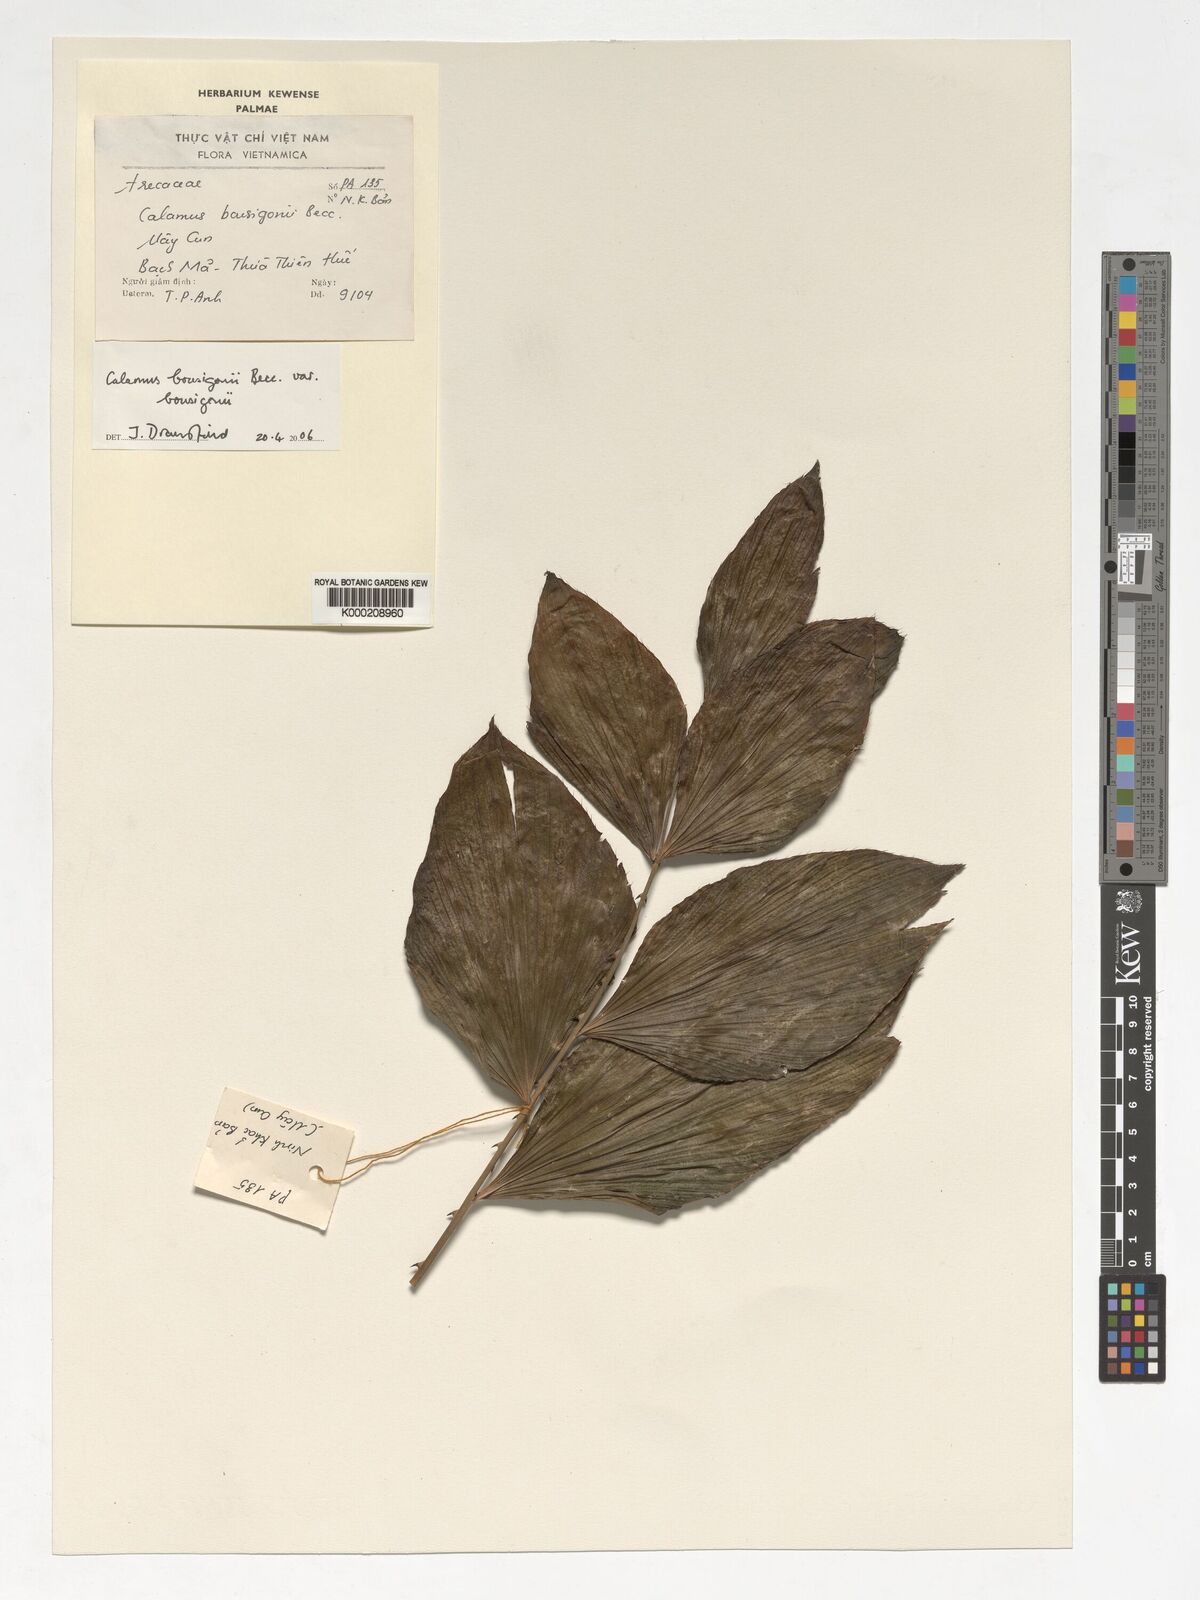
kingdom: Plantae
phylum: Tracheophyta
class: Liliopsida
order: Arecales
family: Arecaceae
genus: Calamus
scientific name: Calamus bousigonii
